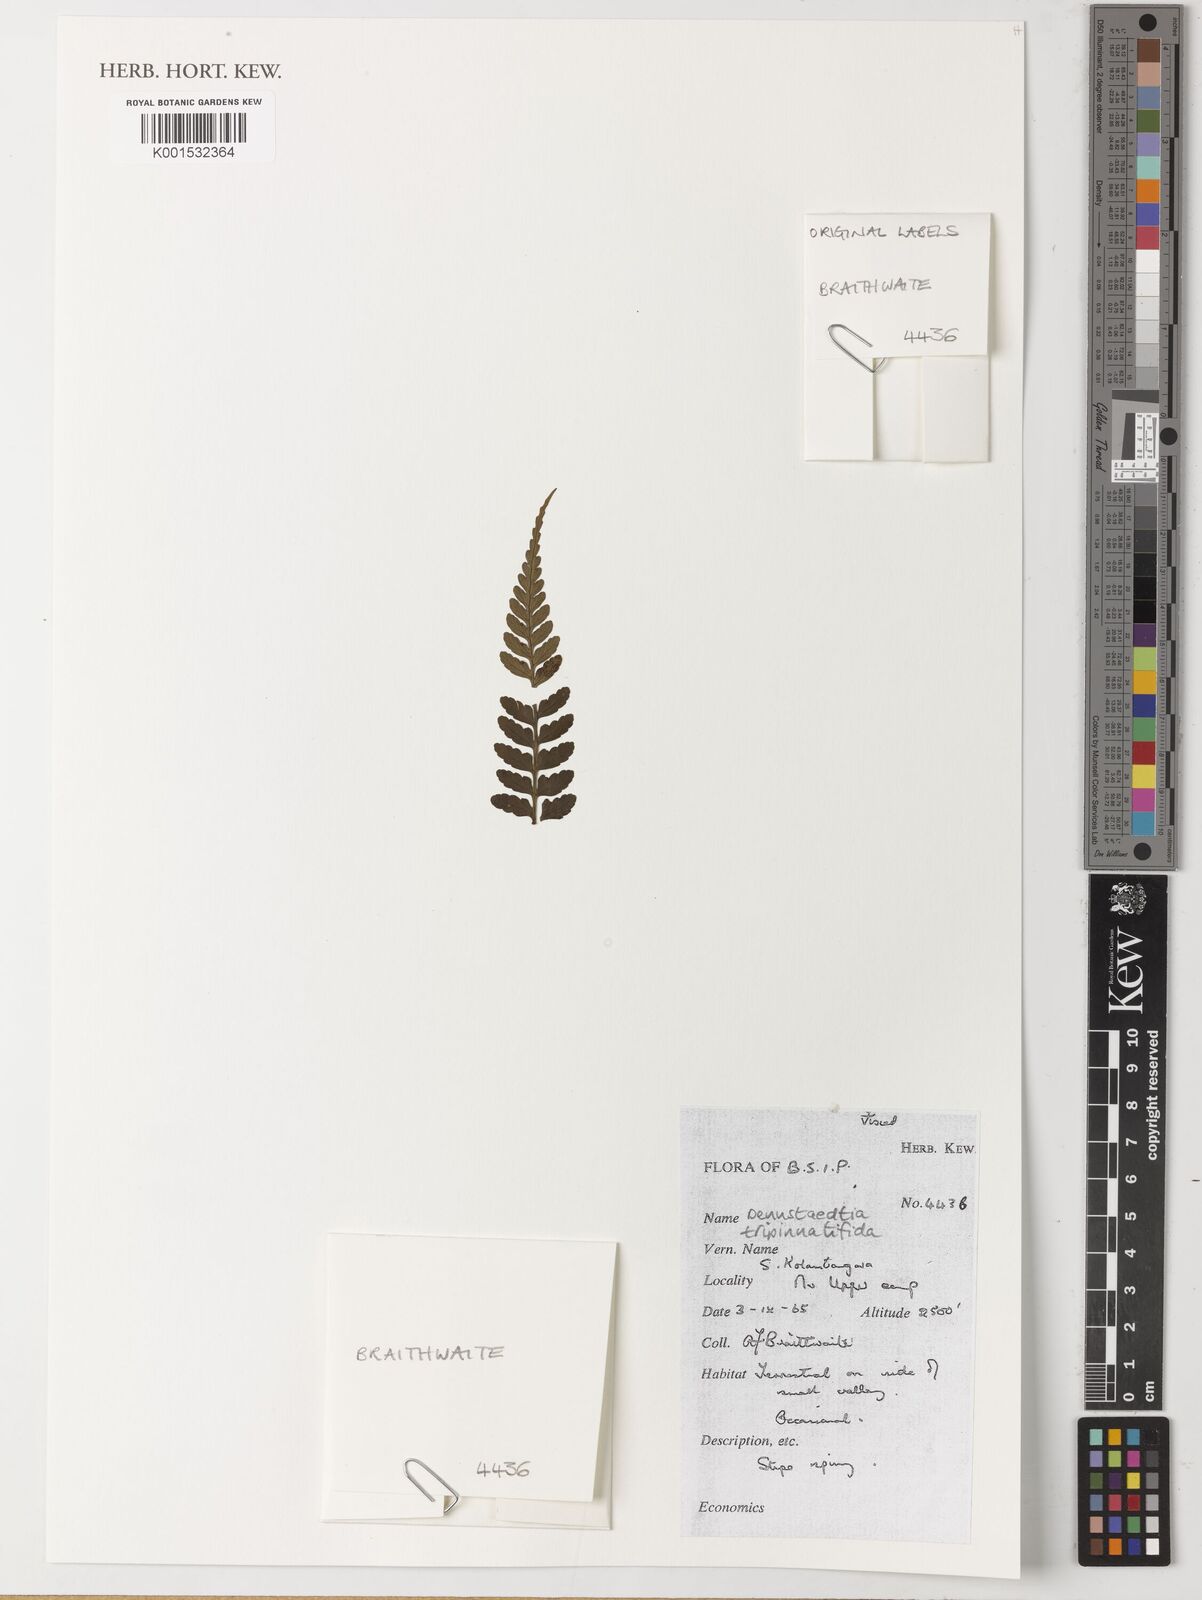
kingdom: Plantae
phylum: Tracheophyta
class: Polypodiopsida
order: Polypodiales
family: Dennstaedtiaceae
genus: Dennstaedtia
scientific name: Dennstaedtia glabrata
